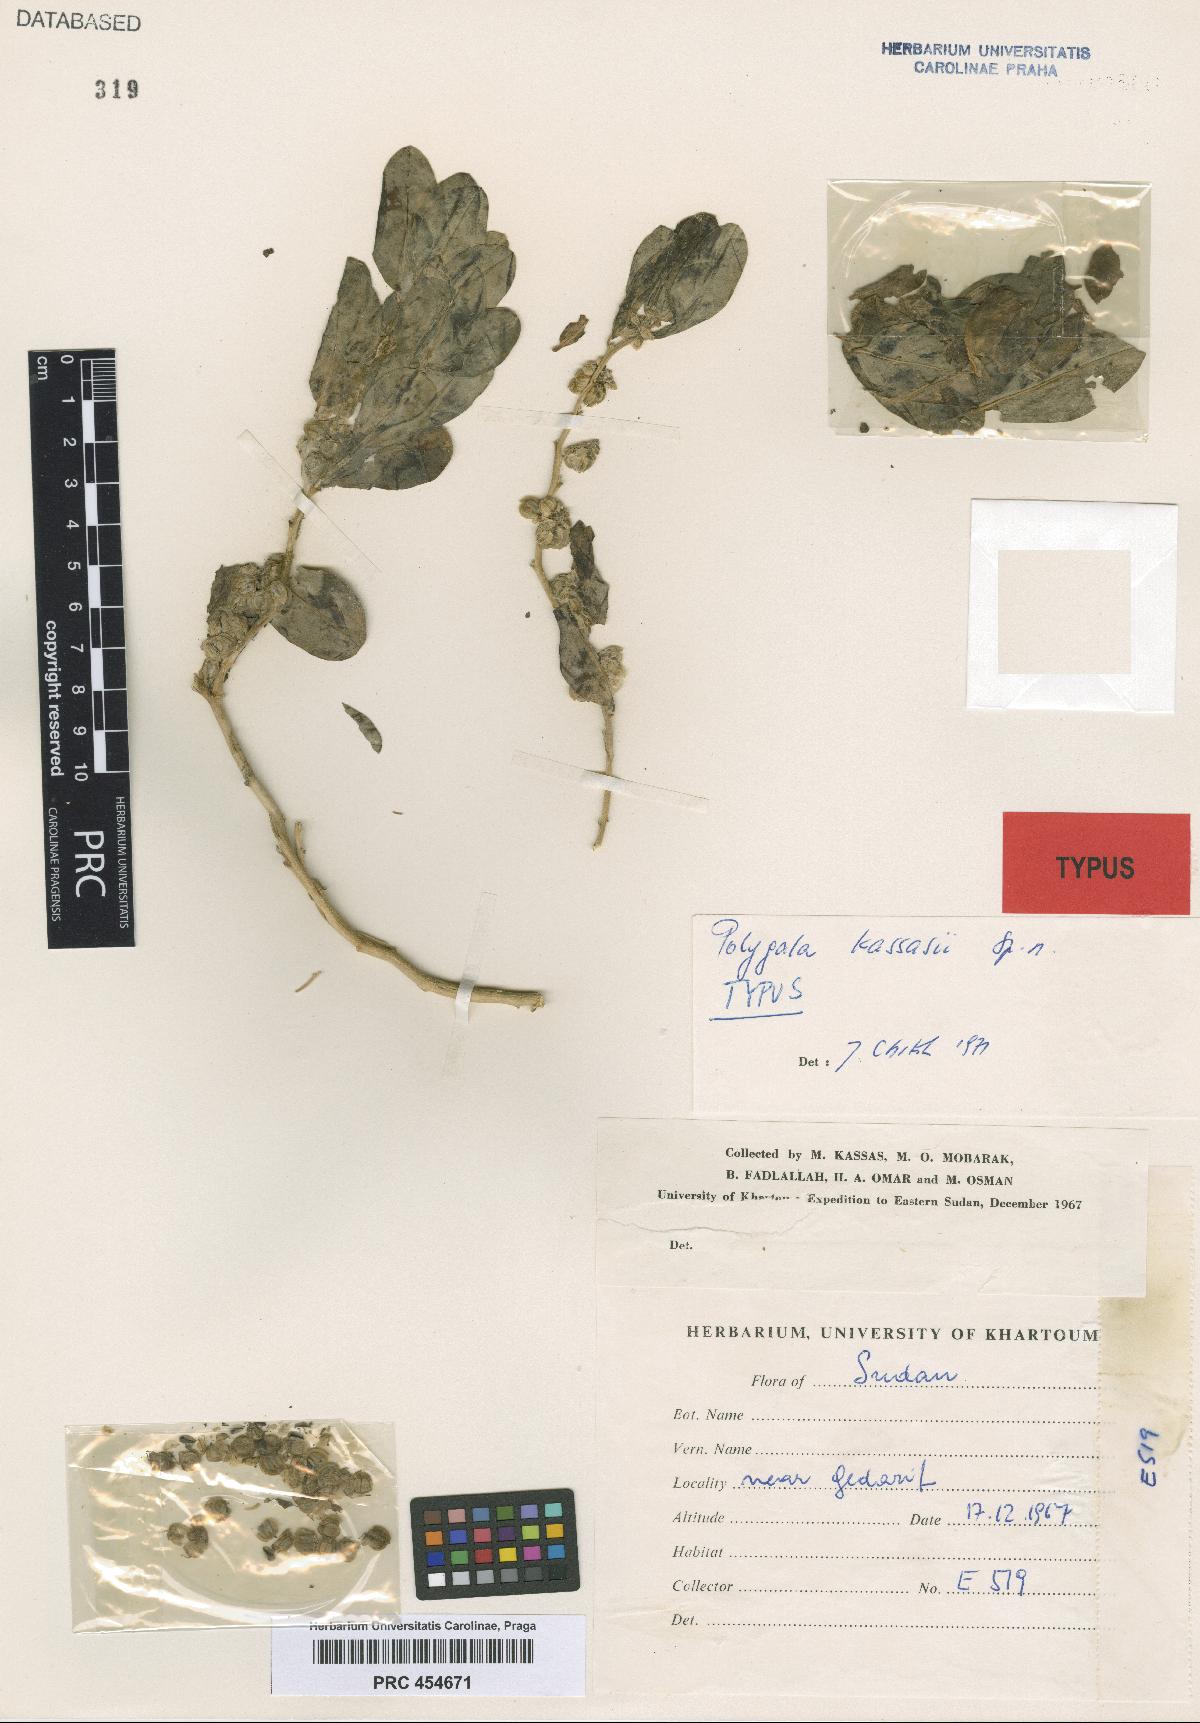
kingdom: Plantae
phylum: Tracheophyta
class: Magnoliopsida
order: Fabales
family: Polygalaceae
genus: Polygala
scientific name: Polygala sadebeckiana
